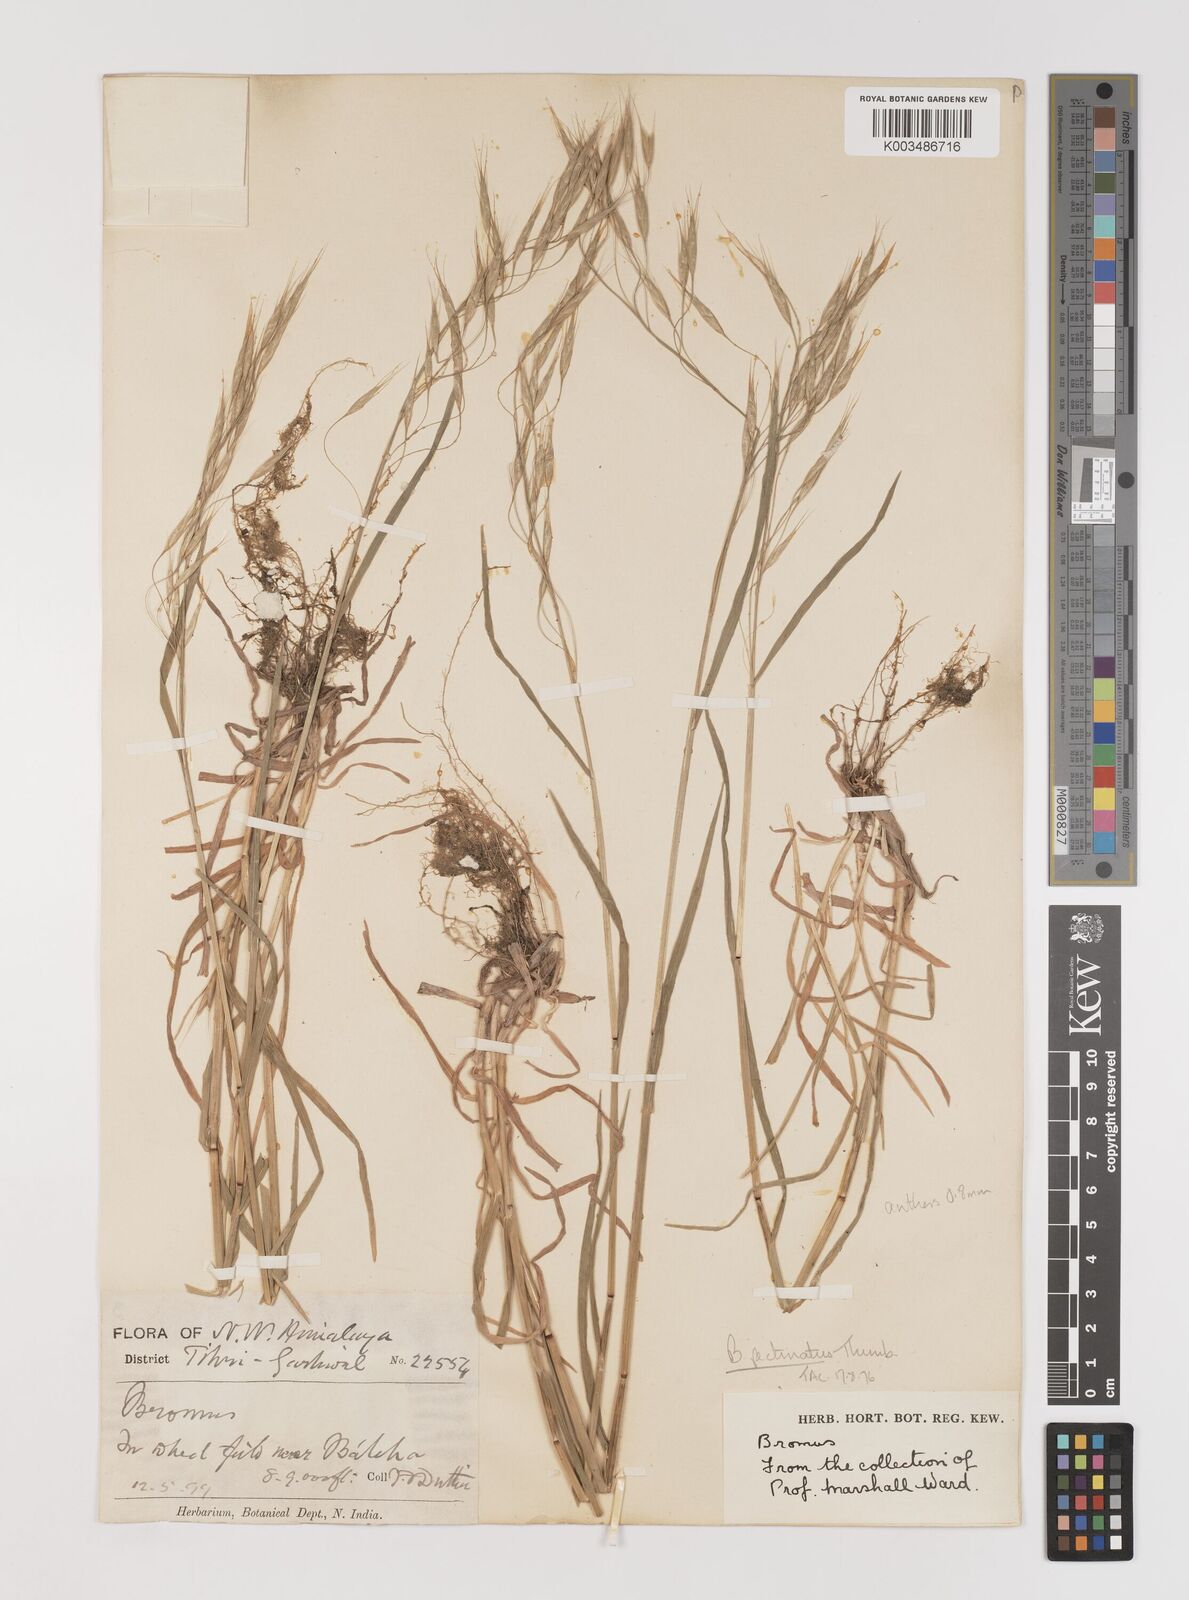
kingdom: Plantae
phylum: Tracheophyta
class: Liliopsida
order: Poales
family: Poaceae
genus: Bromus
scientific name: Bromus pectinatus
